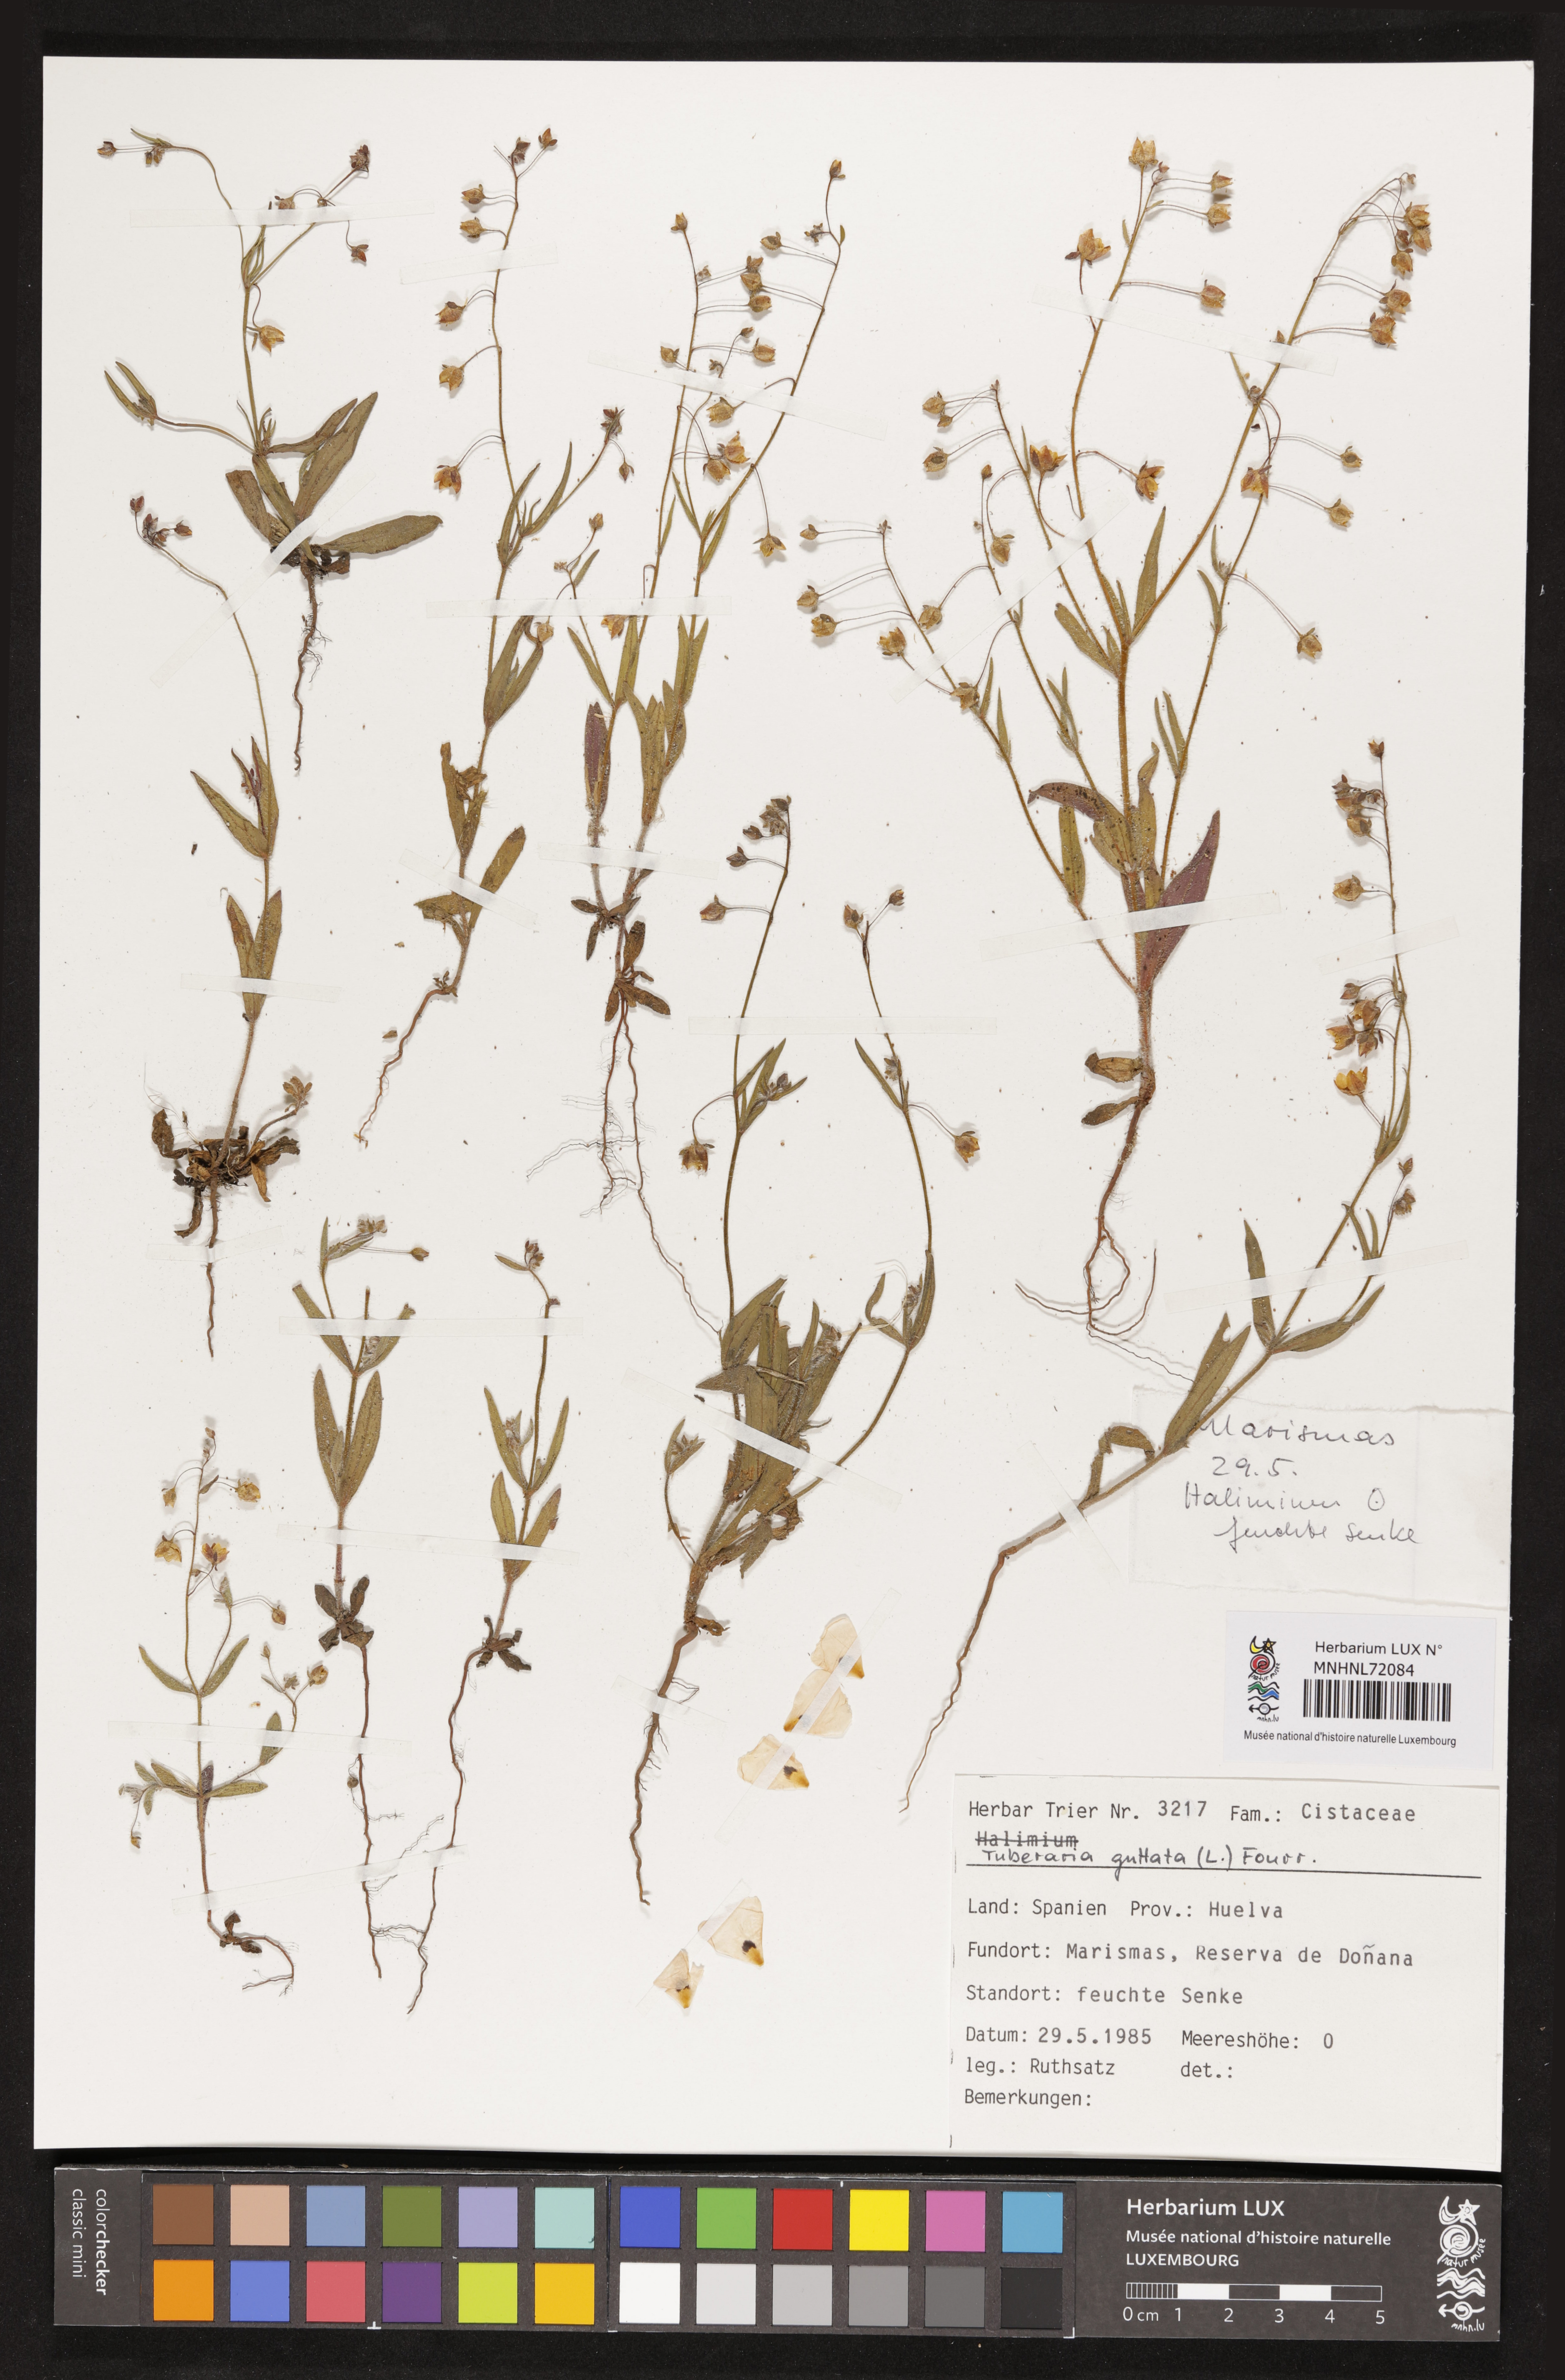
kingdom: Plantae
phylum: Tracheophyta
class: Magnoliopsida
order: Malvales
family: Cistaceae
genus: Tuberaria
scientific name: Tuberaria guttata
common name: Spotted rock-rose
